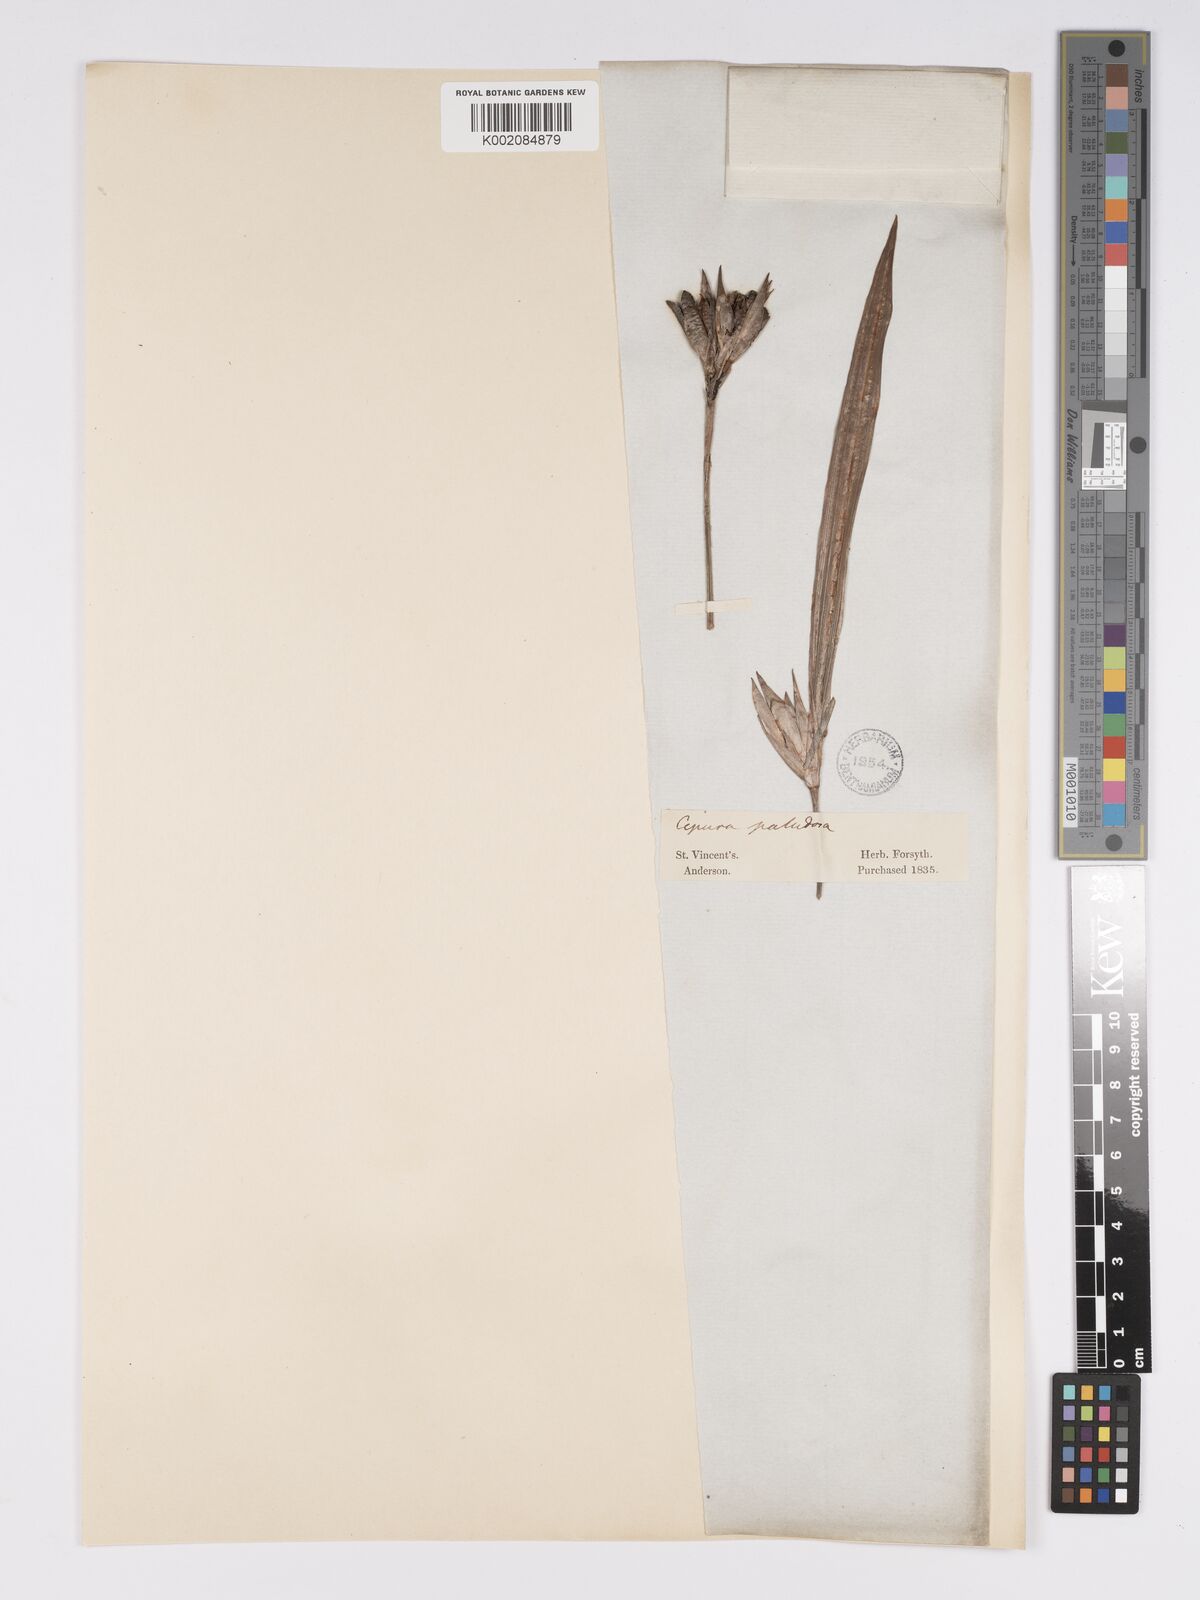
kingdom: Plantae
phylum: Tracheophyta
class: Liliopsida
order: Asparagales
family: Iridaceae
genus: Cipura
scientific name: Cipura paludosa
